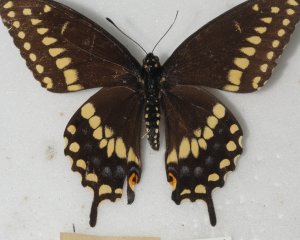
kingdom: Animalia
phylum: Arthropoda
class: Insecta
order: Lepidoptera
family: Papilionidae
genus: Papilio
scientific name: Papilio polyxenes
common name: Black Swallowtail
